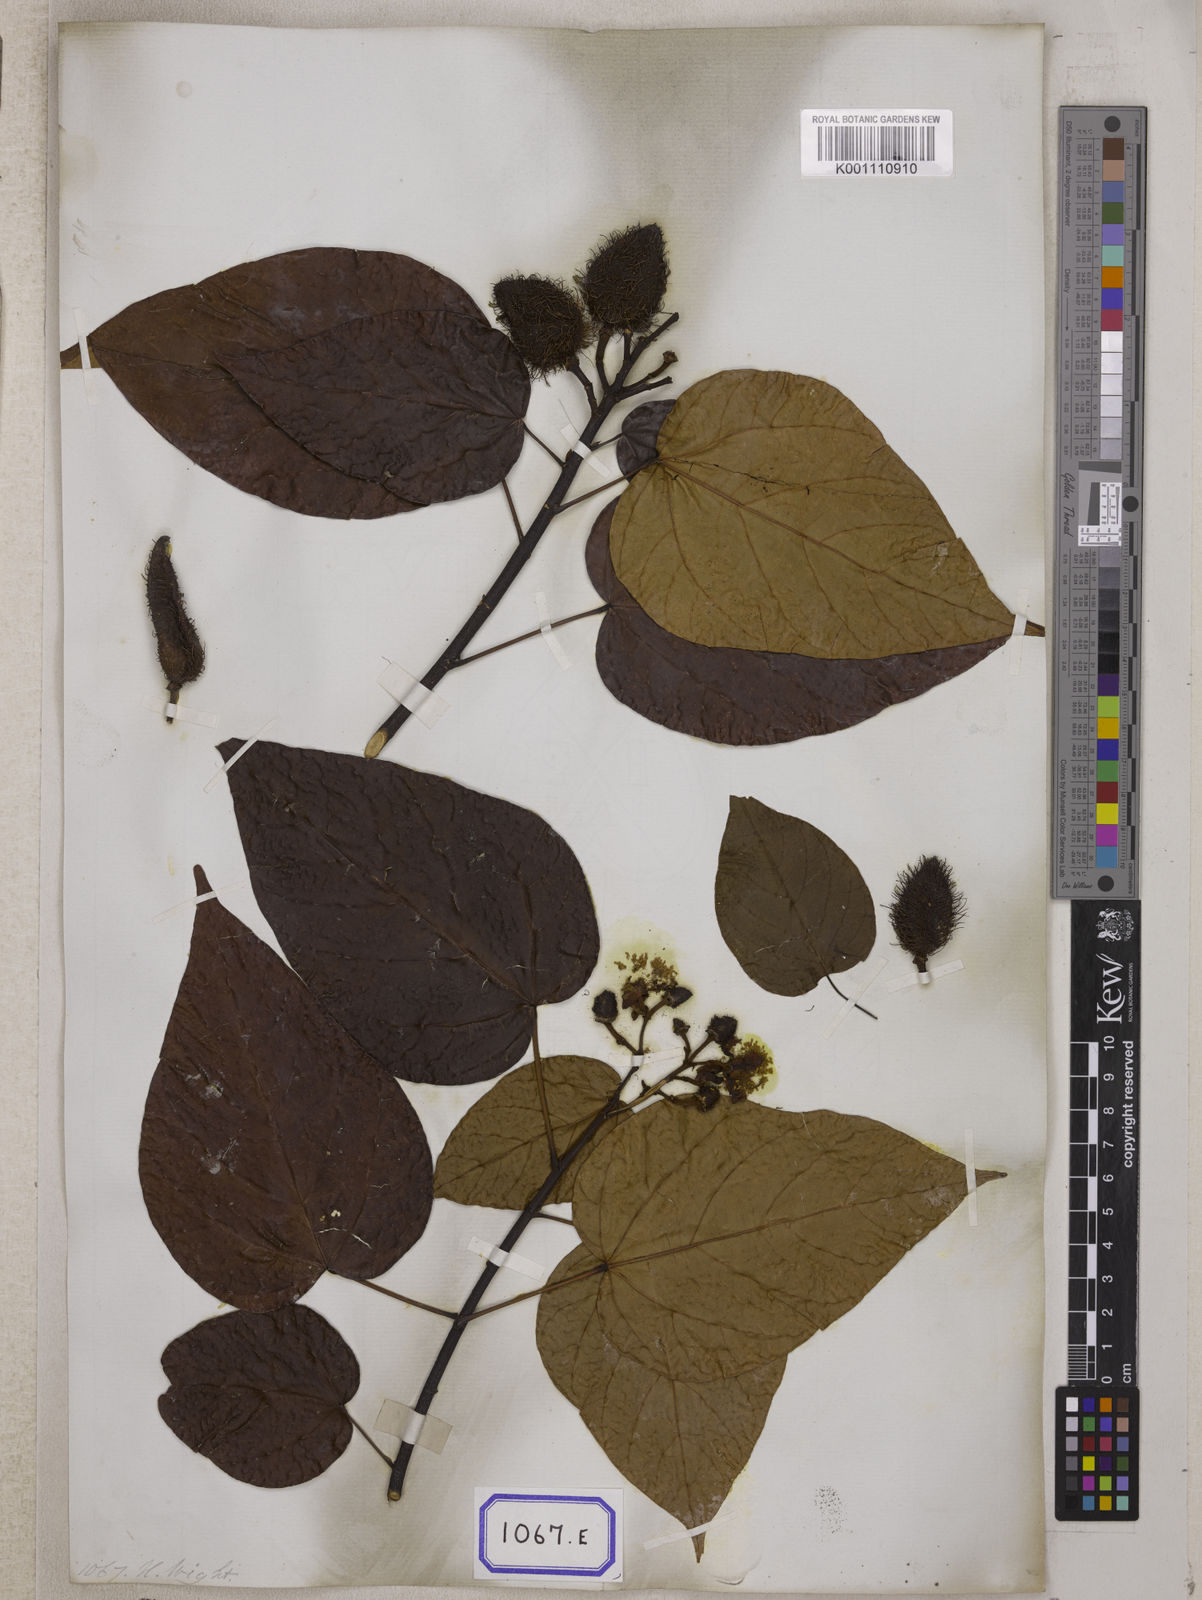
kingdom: Plantae
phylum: Tracheophyta
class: Magnoliopsida
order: Malvales
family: Bixaceae
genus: Bixa
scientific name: Bixa orellana
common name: Lipsticktree
